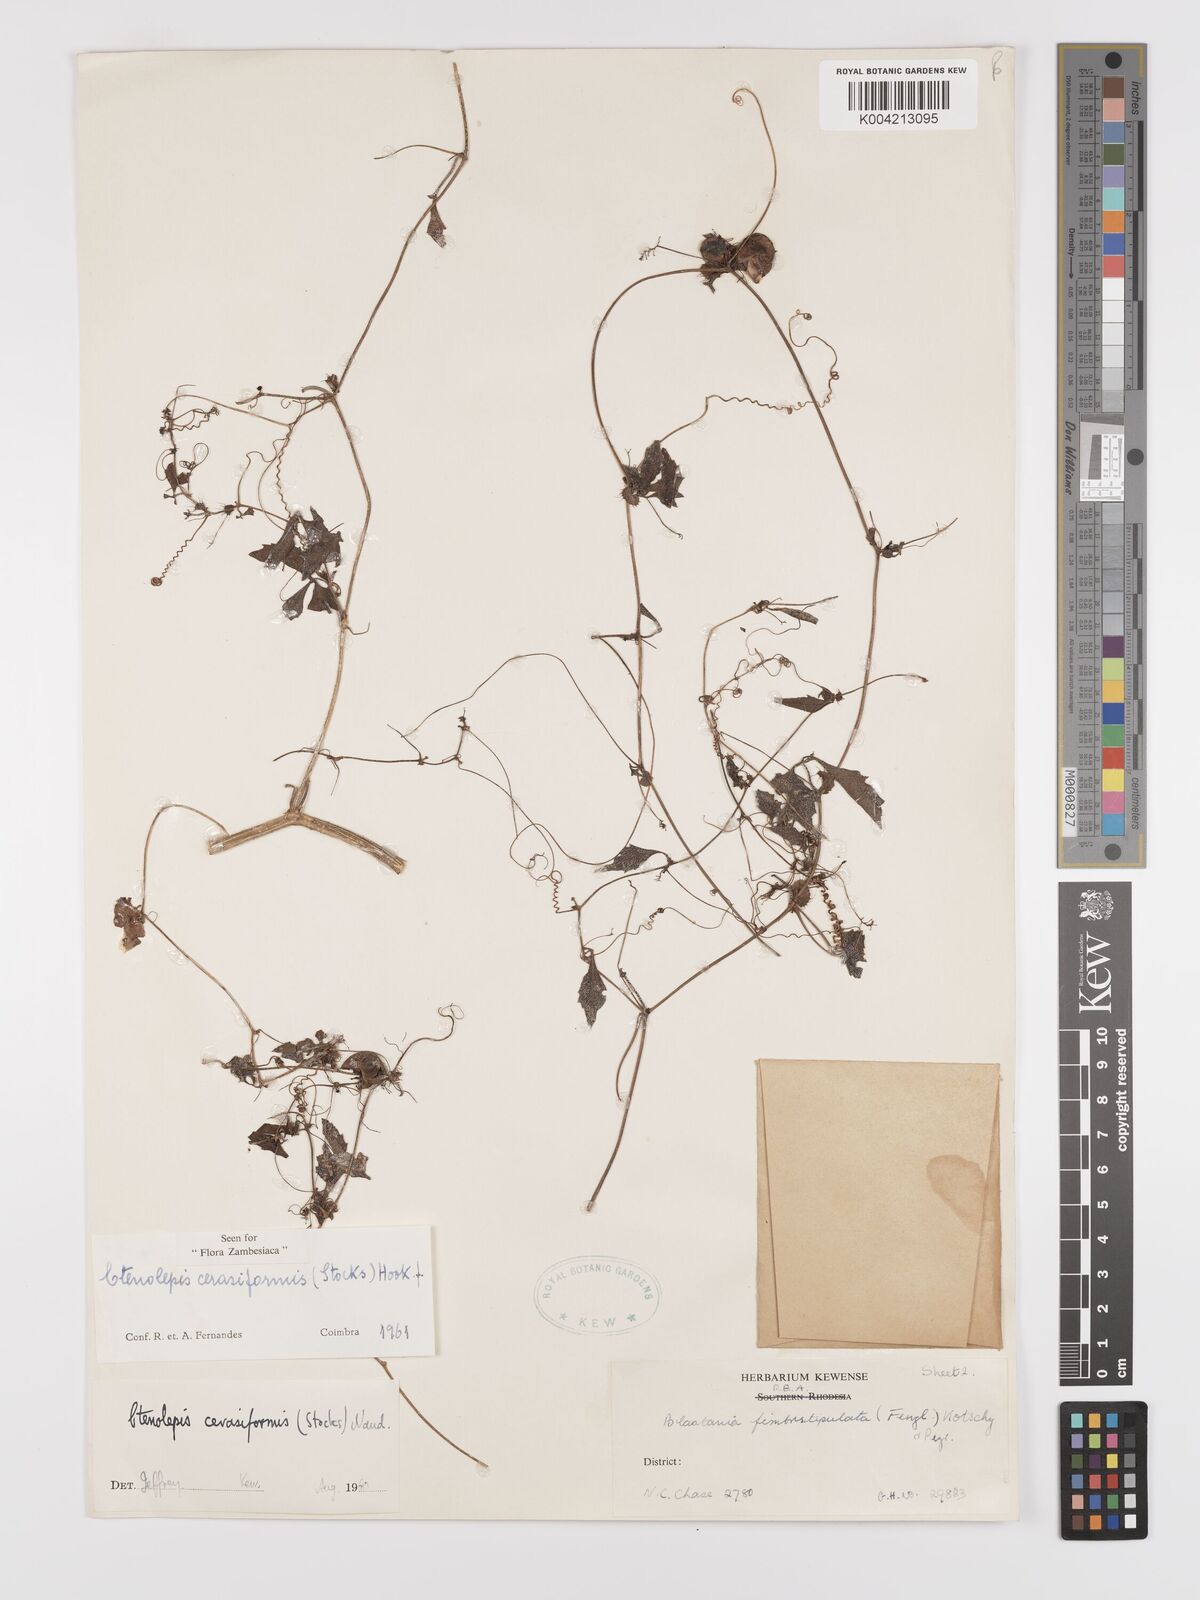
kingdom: Plantae
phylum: Tracheophyta
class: Magnoliopsida
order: Cucurbitales
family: Cucurbitaceae
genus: Blastania
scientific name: Blastania cerasiformis
